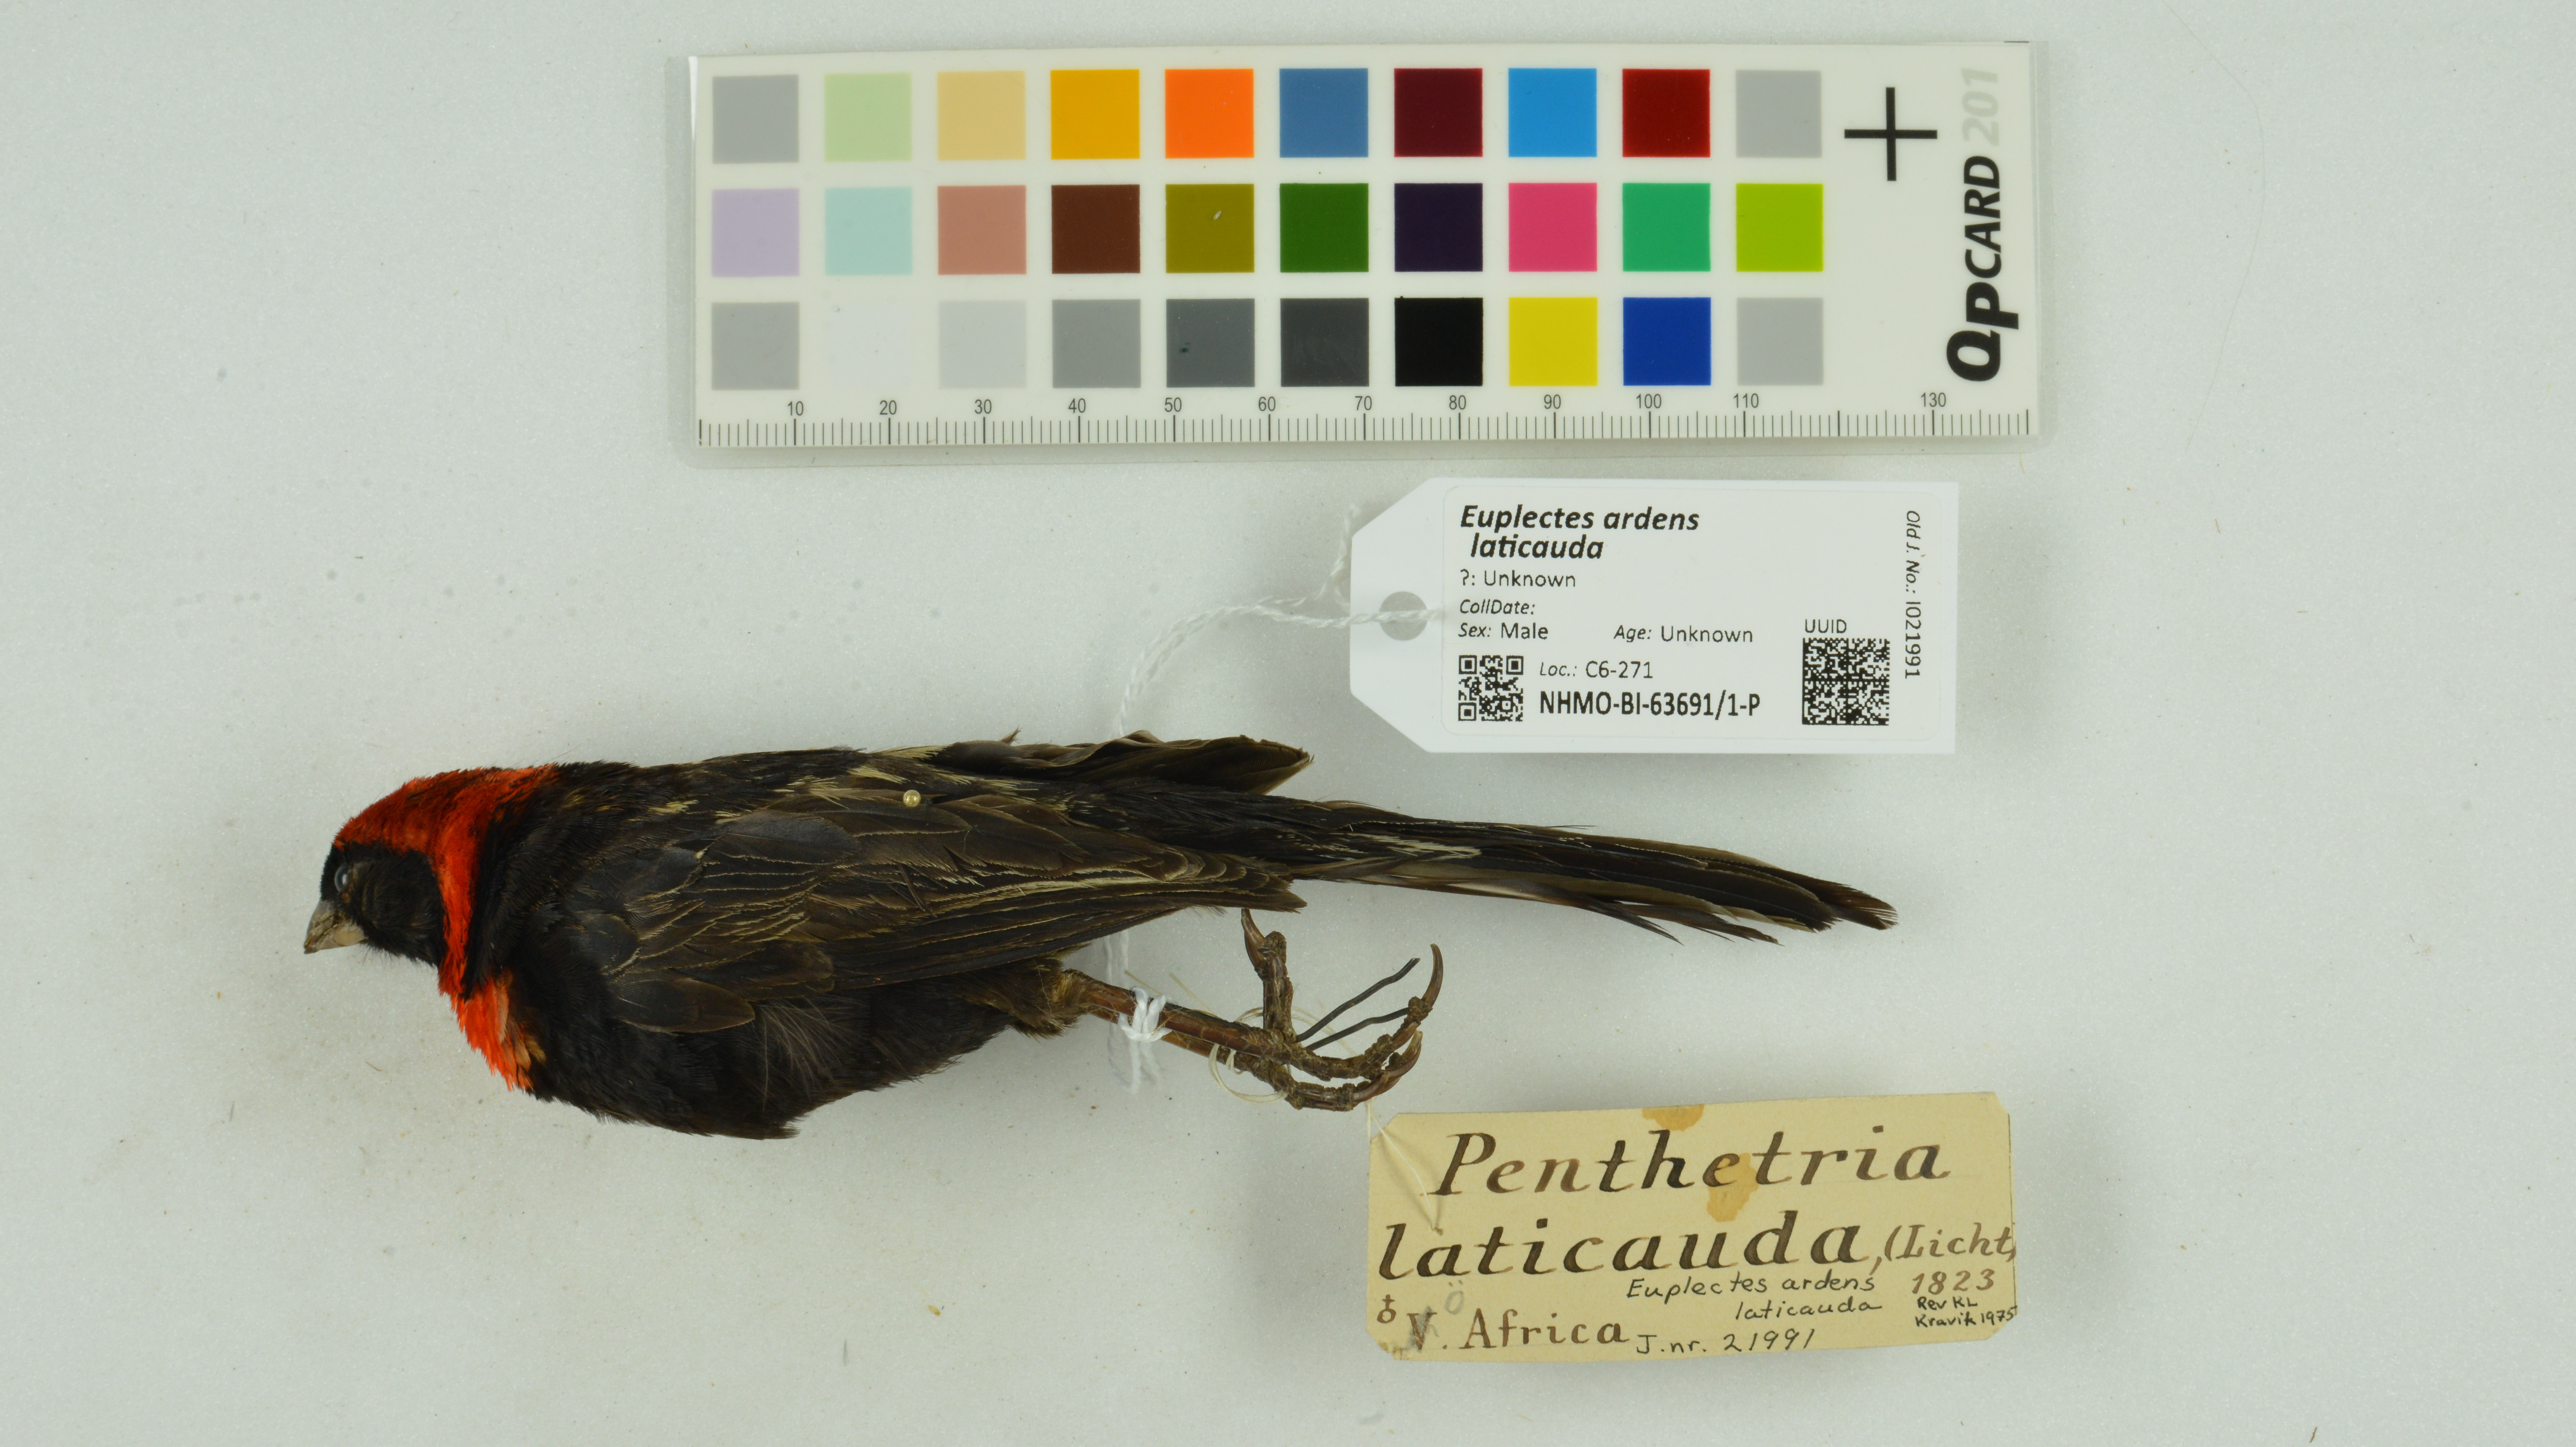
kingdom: Animalia
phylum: Chordata
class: Aves
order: Passeriformes
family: Ploceidae
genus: Euplectes
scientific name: Euplectes ardens
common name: Red-collared widowbird
